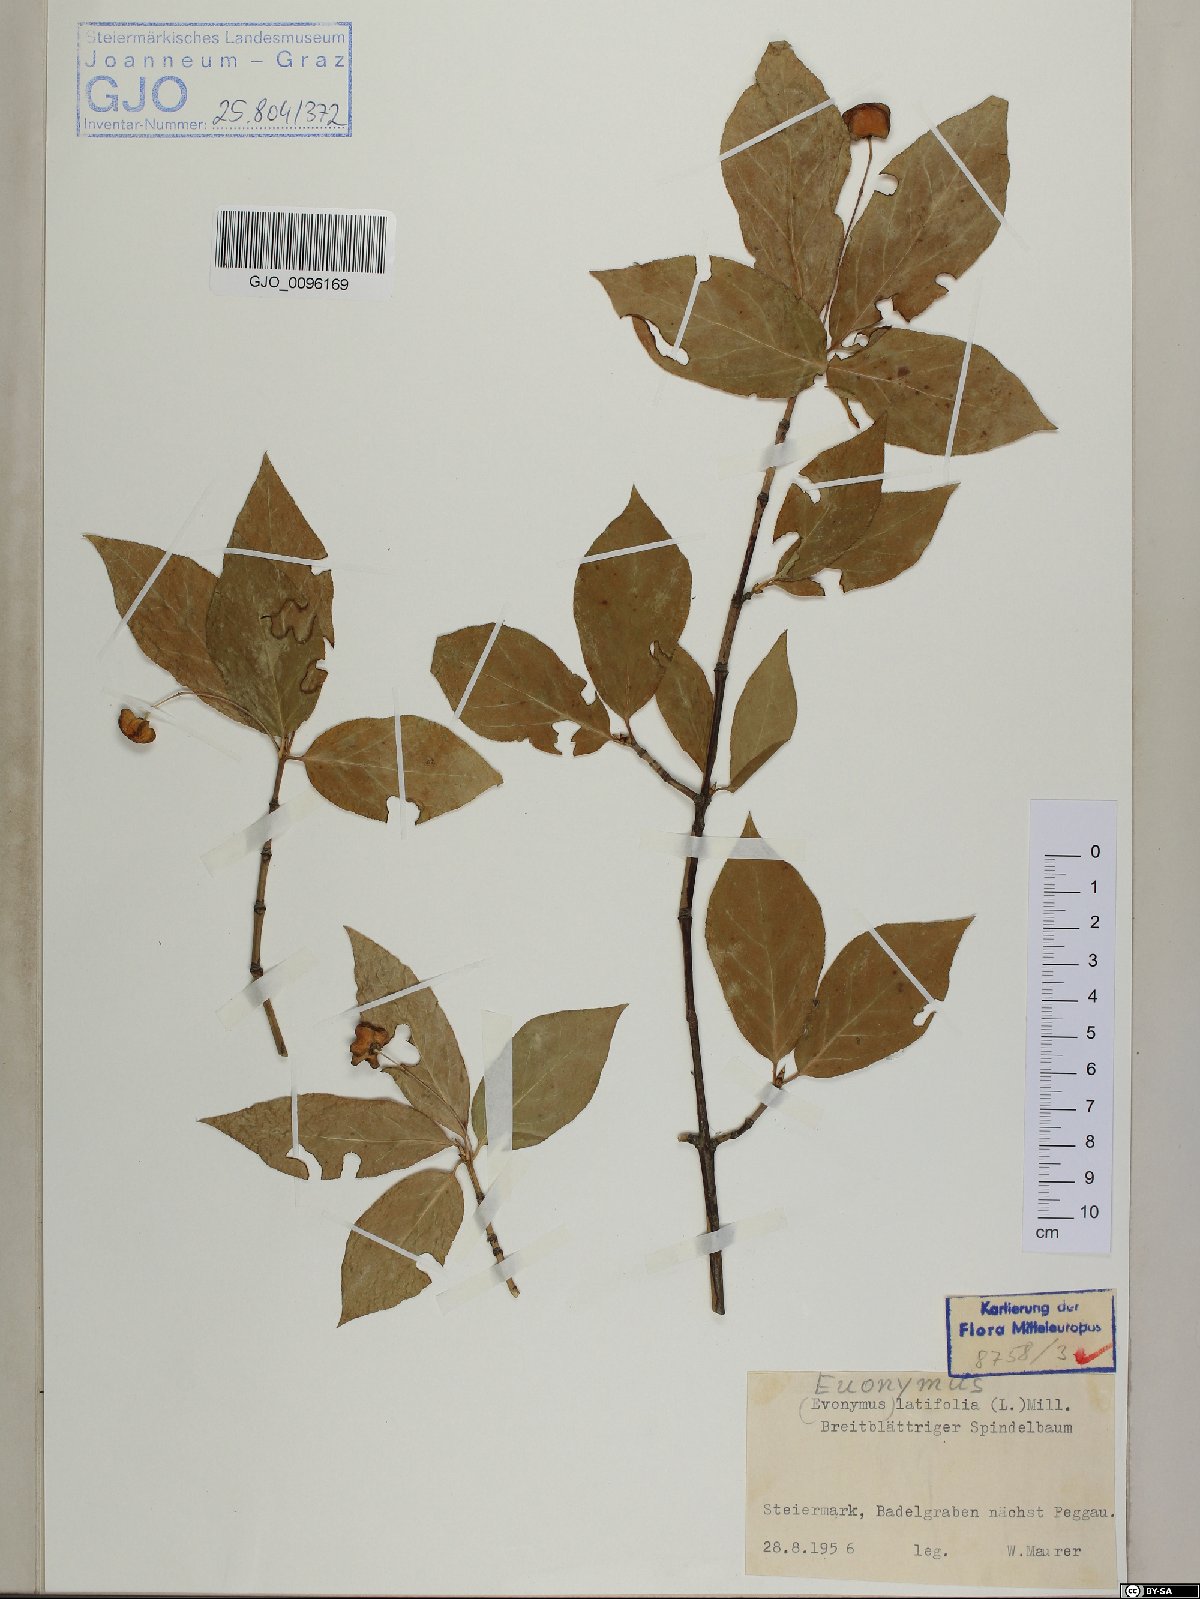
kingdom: Plantae
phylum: Tracheophyta
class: Magnoliopsida
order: Celastrales
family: Celastraceae
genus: Euonymus
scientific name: Euonymus latifolius
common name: Large-leaved spindle
